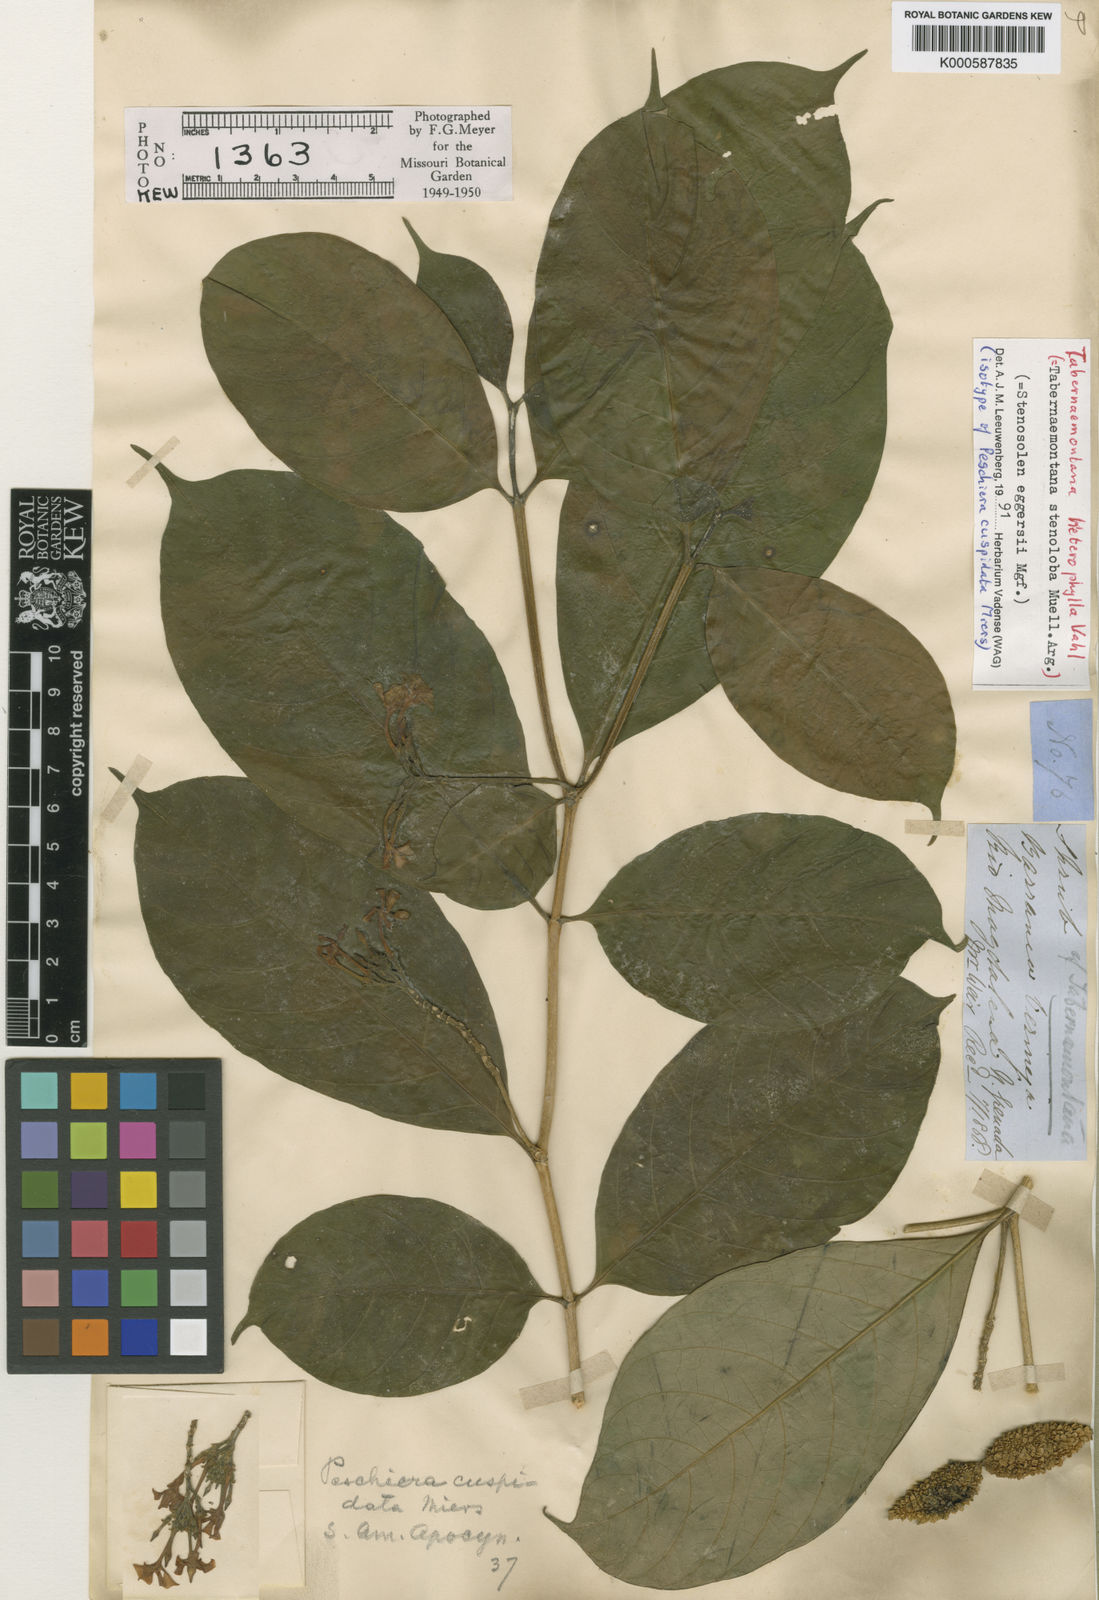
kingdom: Plantae
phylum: Tracheophyta
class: Magnoliopsida
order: Gentianales
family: Apocynaceae
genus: Tabernaemontana
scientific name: Tabernaemontana heterophylla
